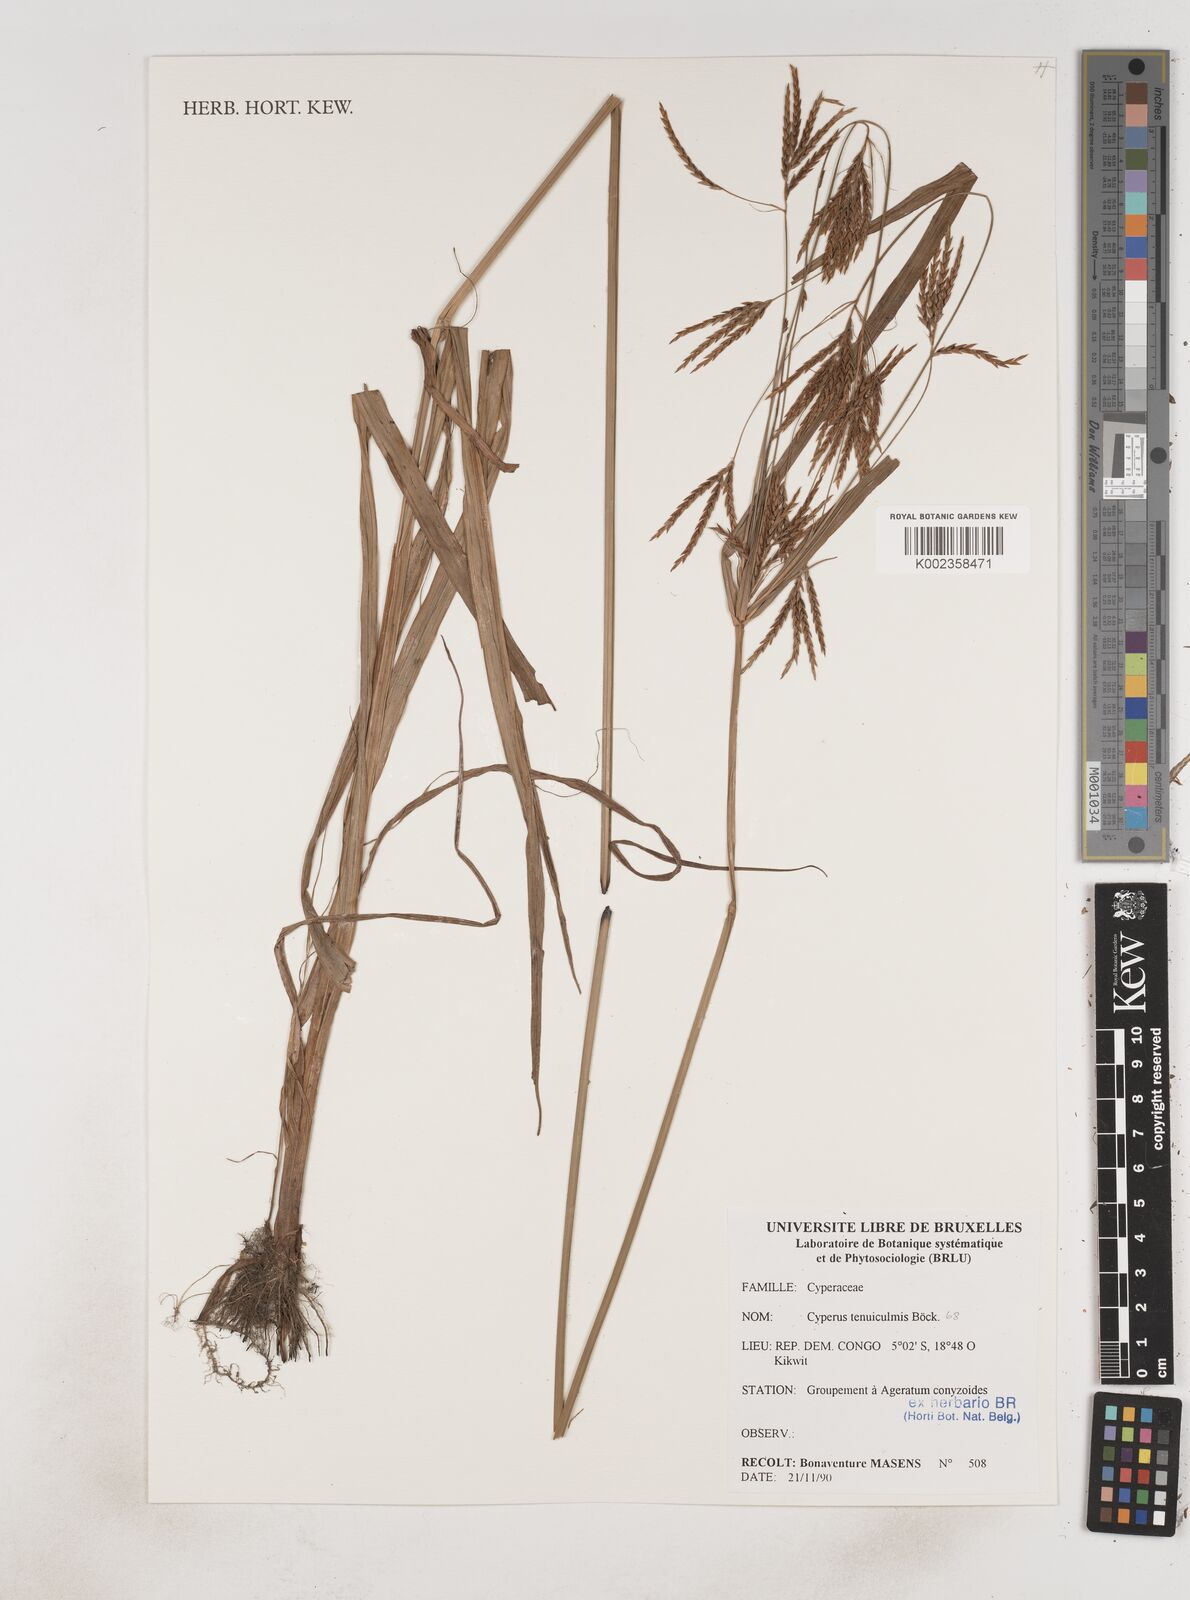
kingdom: Plantae
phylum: Tracheophyta
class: Liliopsida
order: Poales
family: Cyperaceae
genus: Cyperus
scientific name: Cyperus dilatatus
